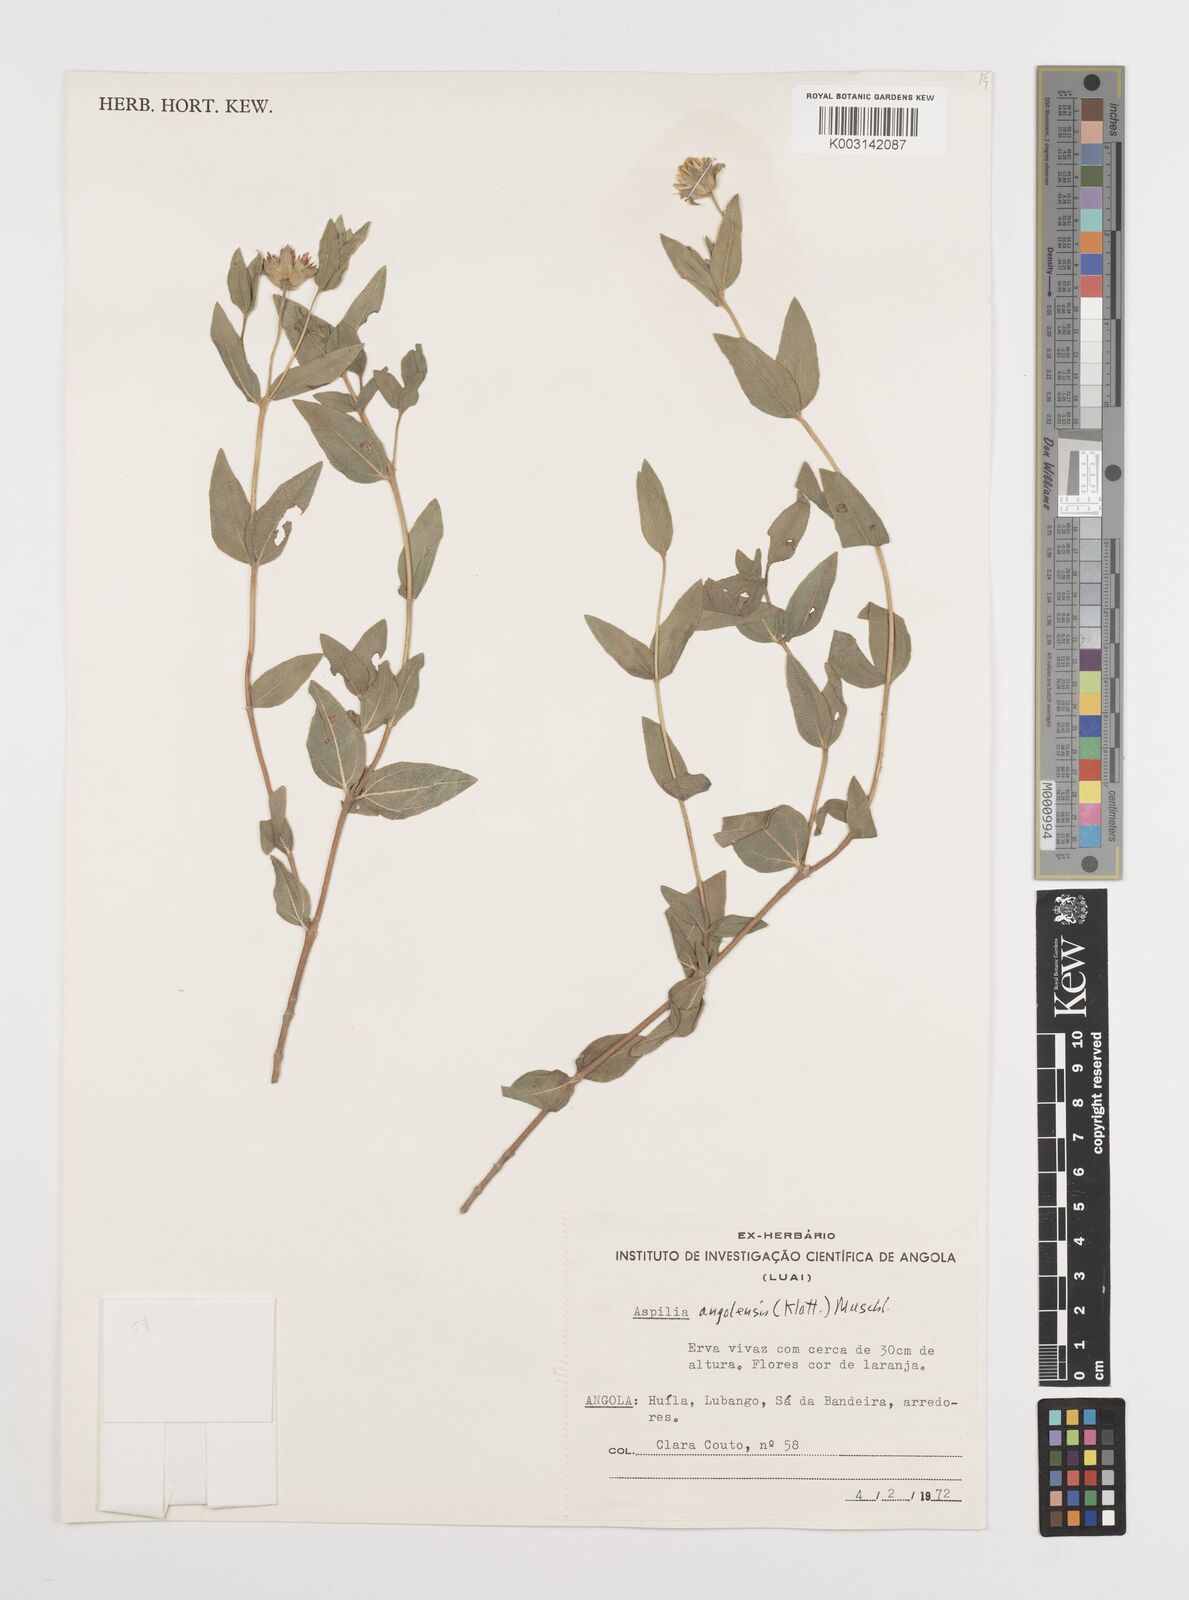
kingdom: Plantae
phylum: Tracheophyta
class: Magnoliopsida
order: Asterales
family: Asteraceae
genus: Aspilia
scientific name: Aspilia angolensis
